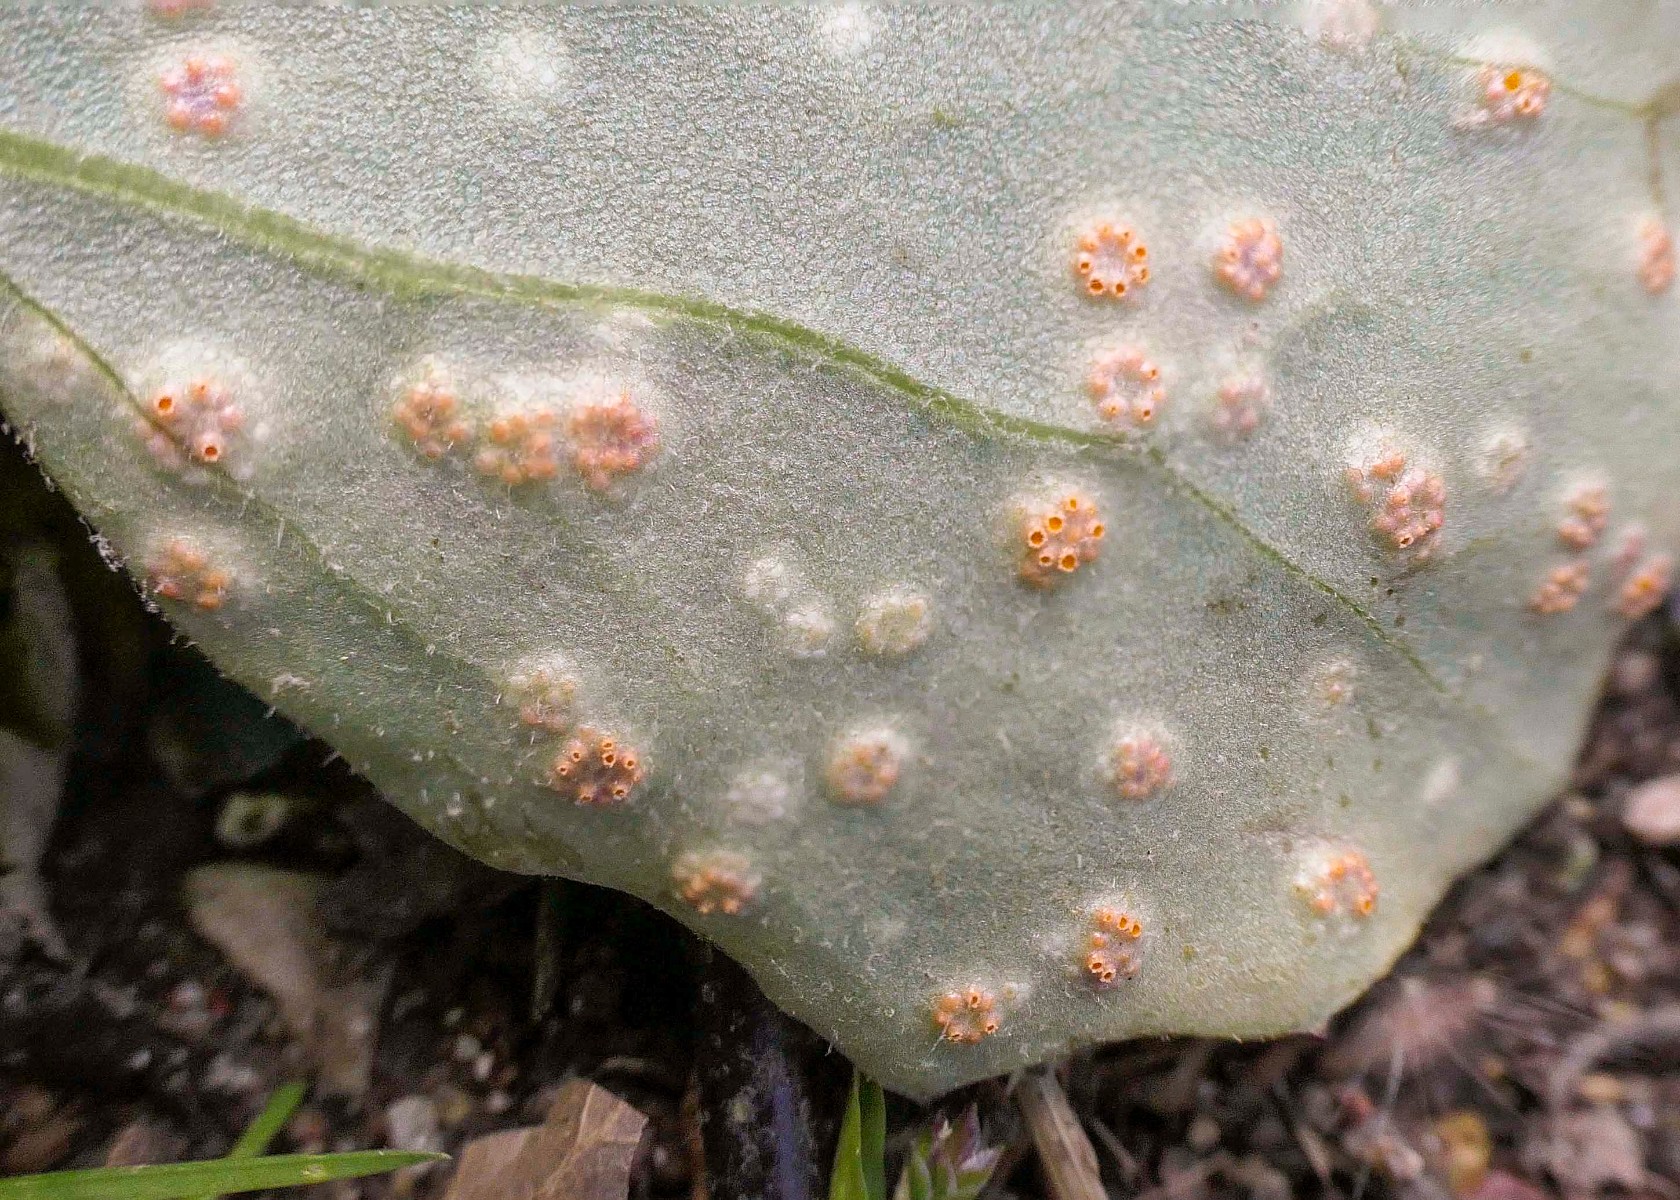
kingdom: Fungi
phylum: Basidiomycota
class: Pucciniomycetes
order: Pucciniales
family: Pucciniaceae
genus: Puccinia
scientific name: Puccinia poarum
